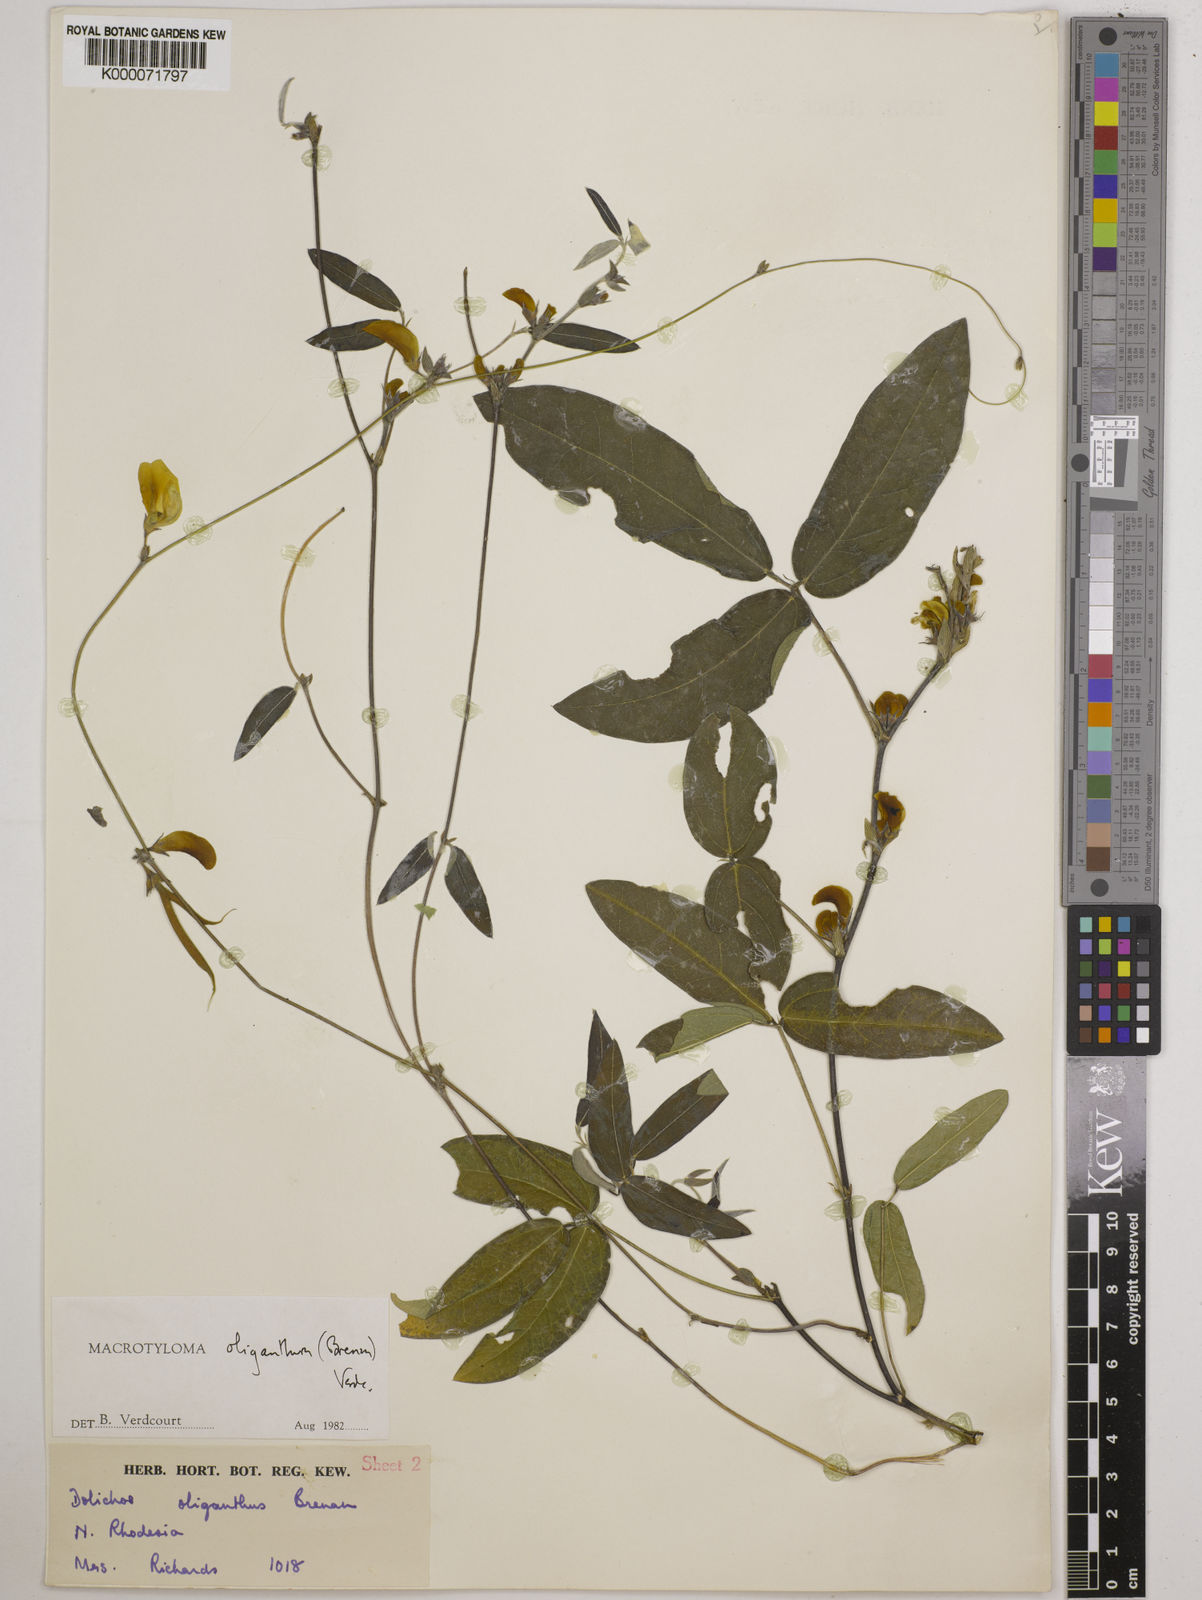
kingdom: Plantae
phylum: Tracheophyta
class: Magnoliopsida
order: Fabales
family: Fabaceae
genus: Macrotyloma
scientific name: Macrotyloma oliganthum
